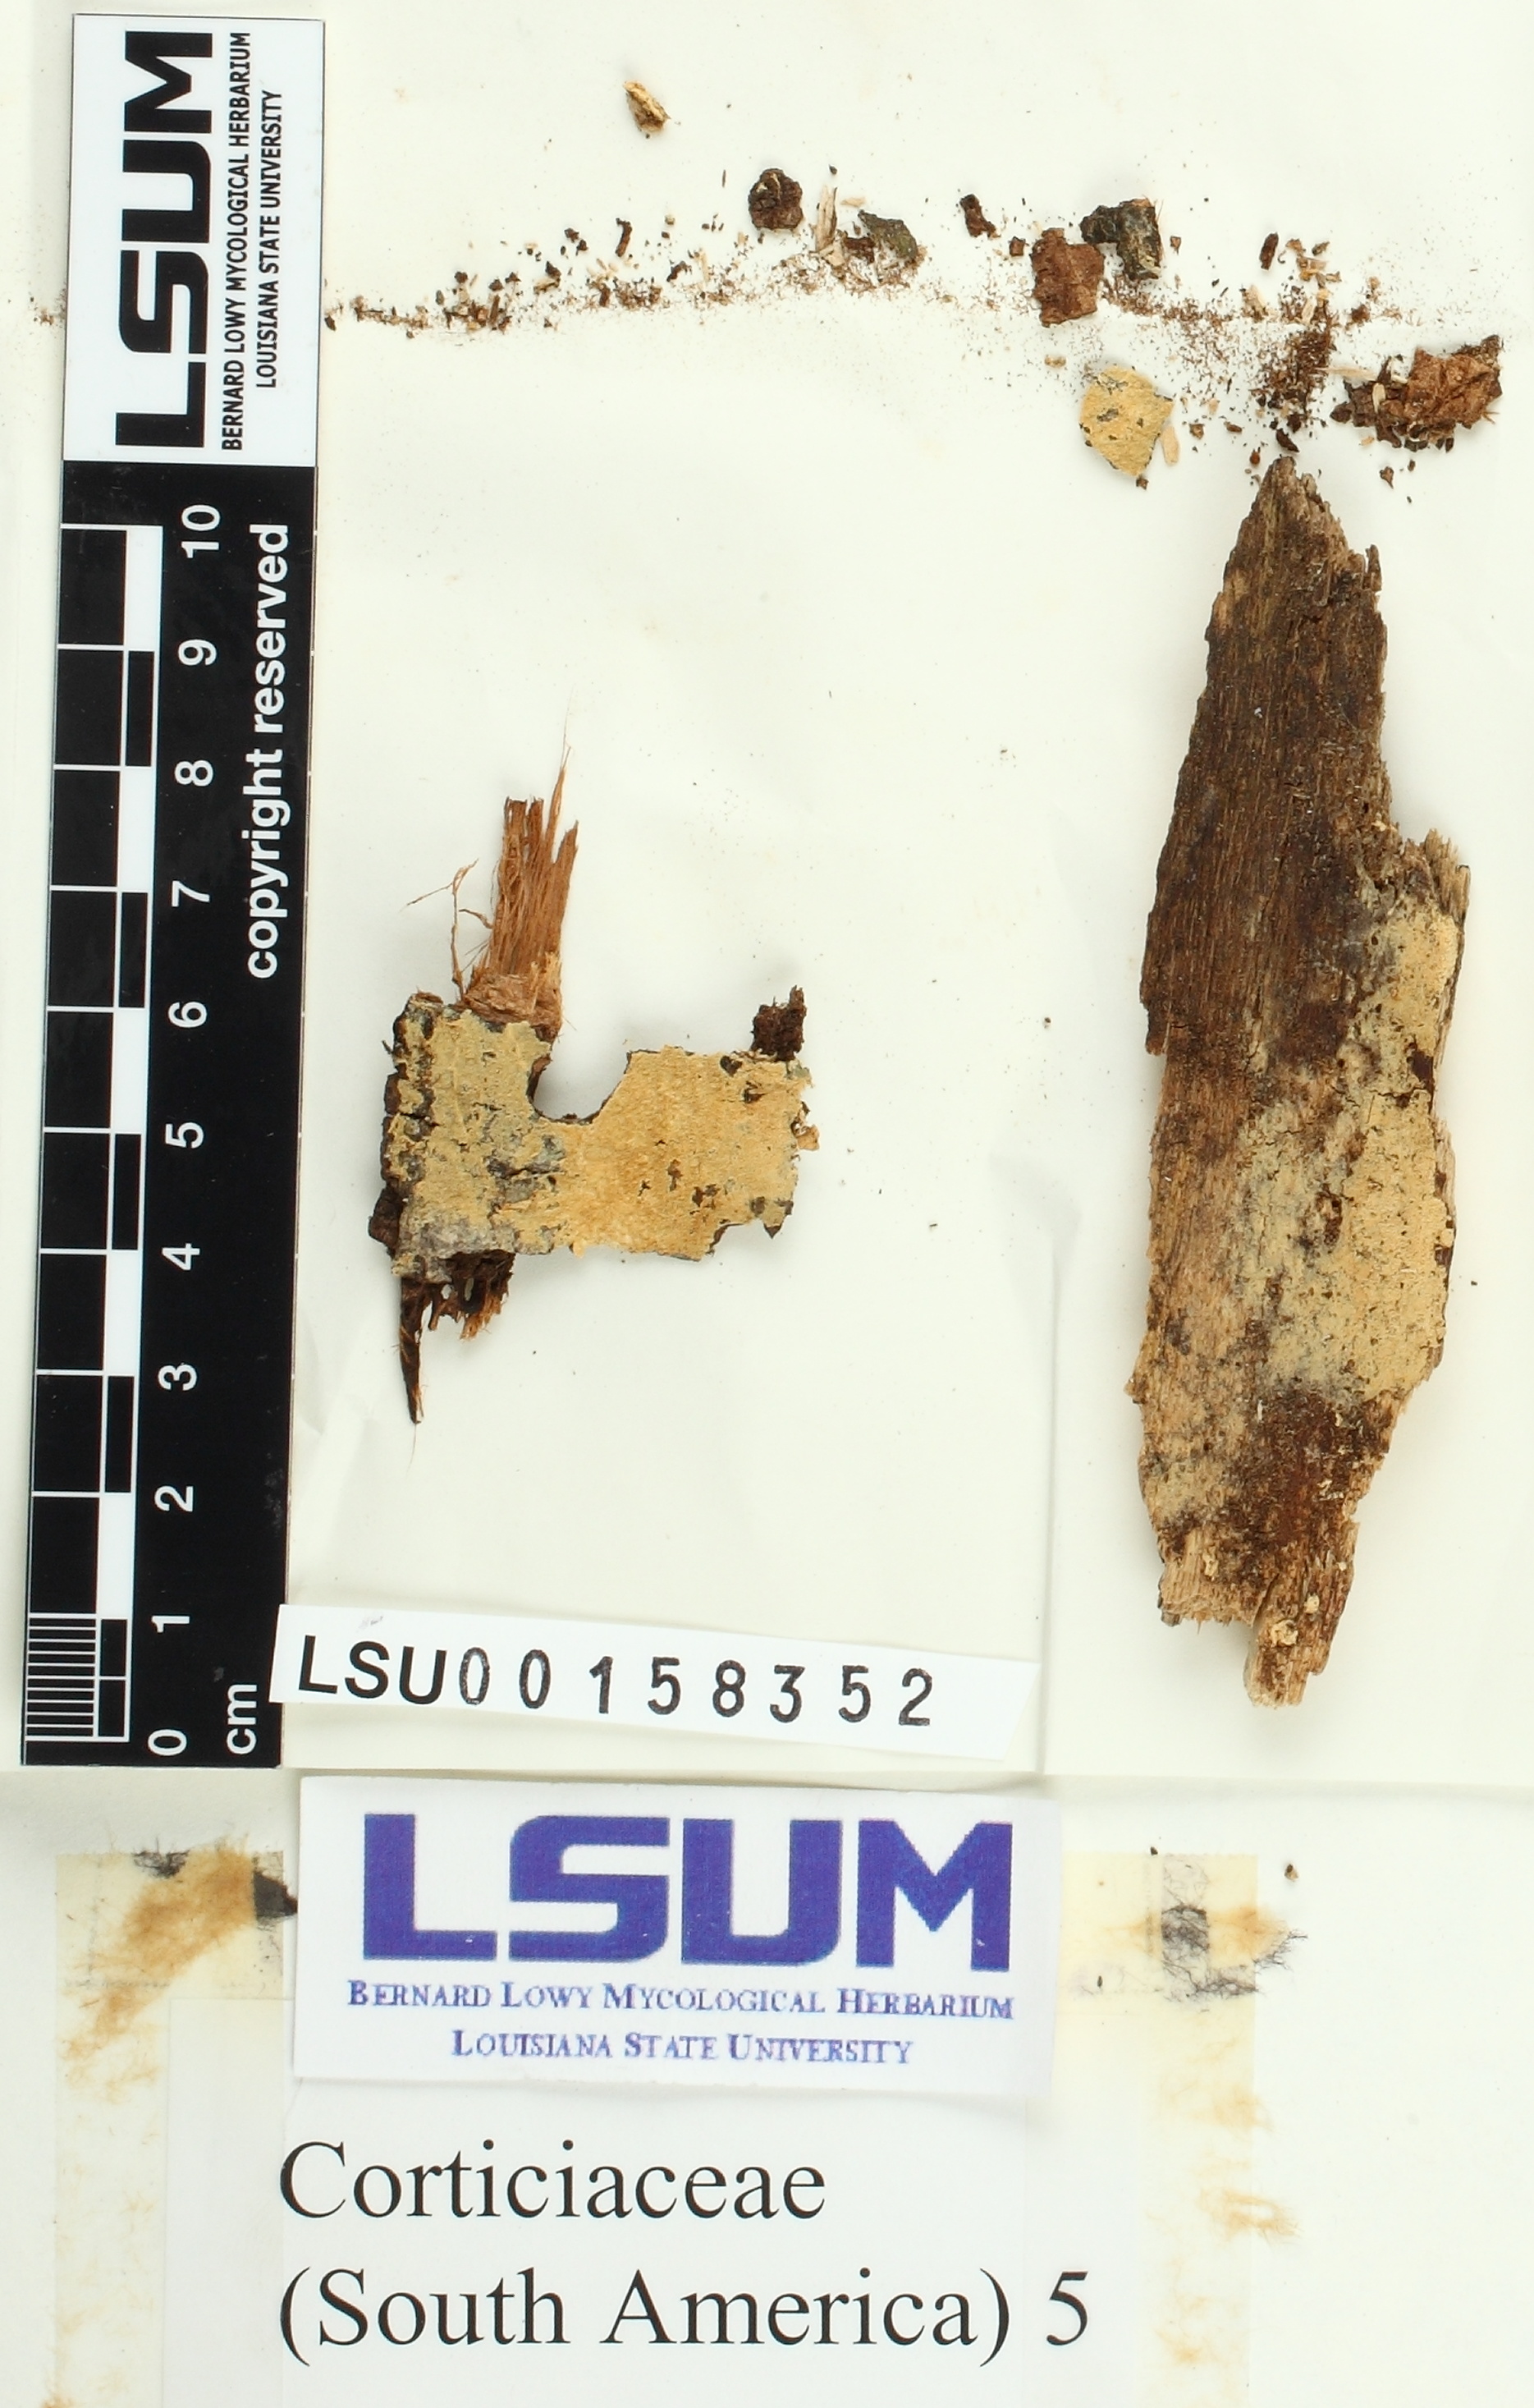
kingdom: Fungi
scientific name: Fungi
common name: Fungi
